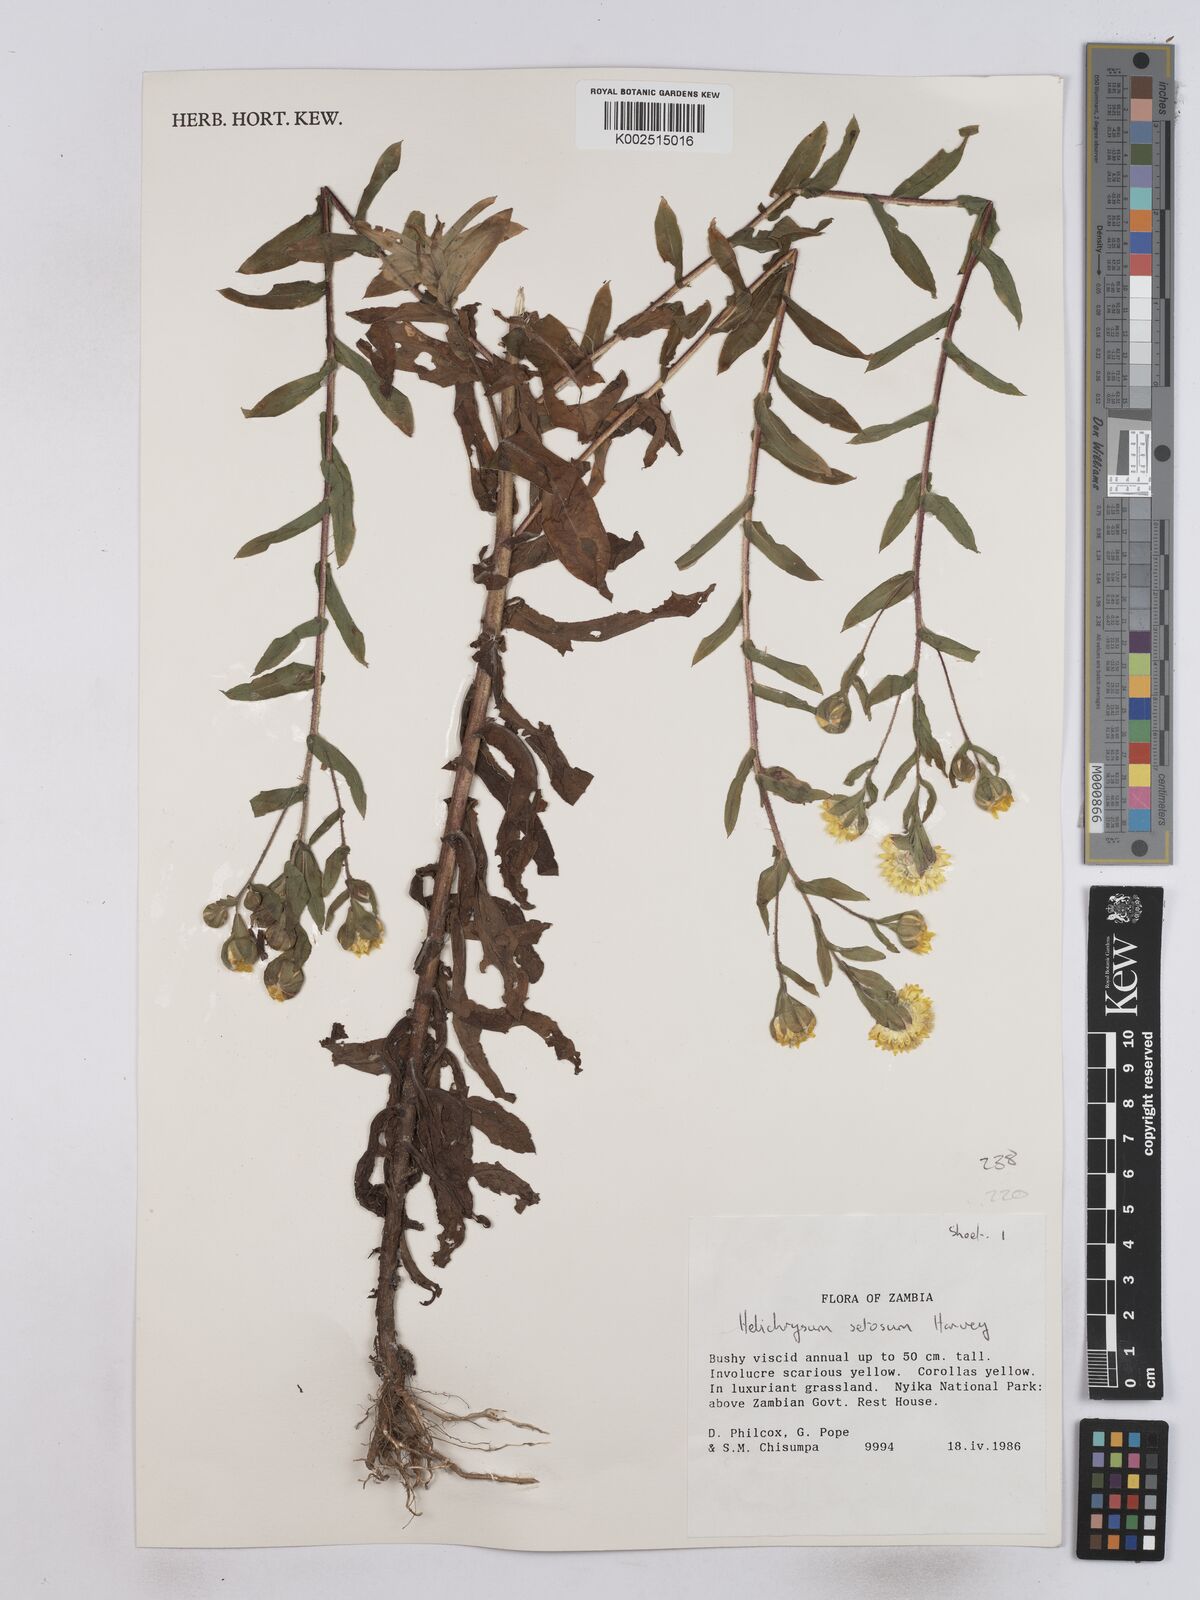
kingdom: Plantae
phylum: Tracheophyta
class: Magnoliopsida
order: Asterales
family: Asteraceae
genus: Helichrysum
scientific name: Helichrysum setosum
